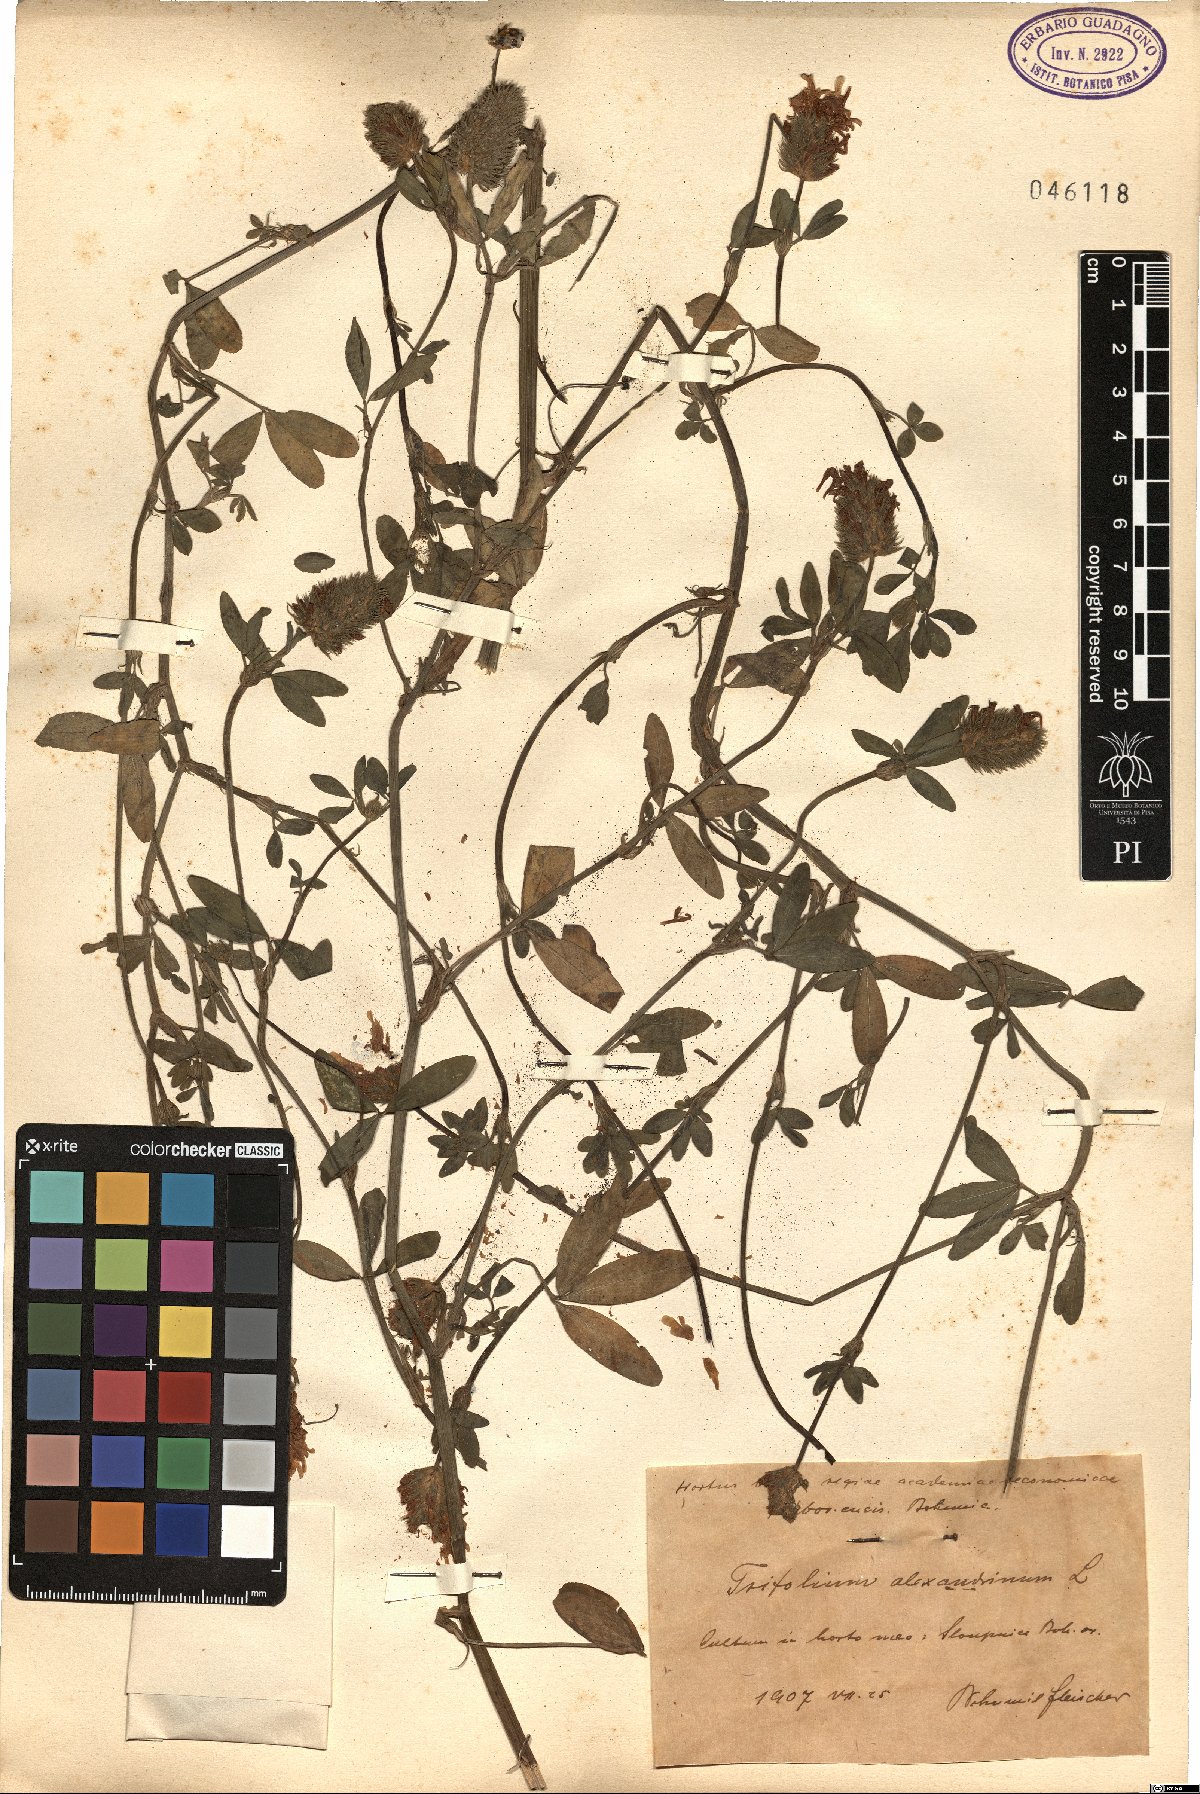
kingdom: Plantae
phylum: Tracheophyta
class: Magnoliopsida
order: Fabales
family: Fabaceae
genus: Trifolium
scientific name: Trifolium alexandrinum
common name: Egyptian clover
